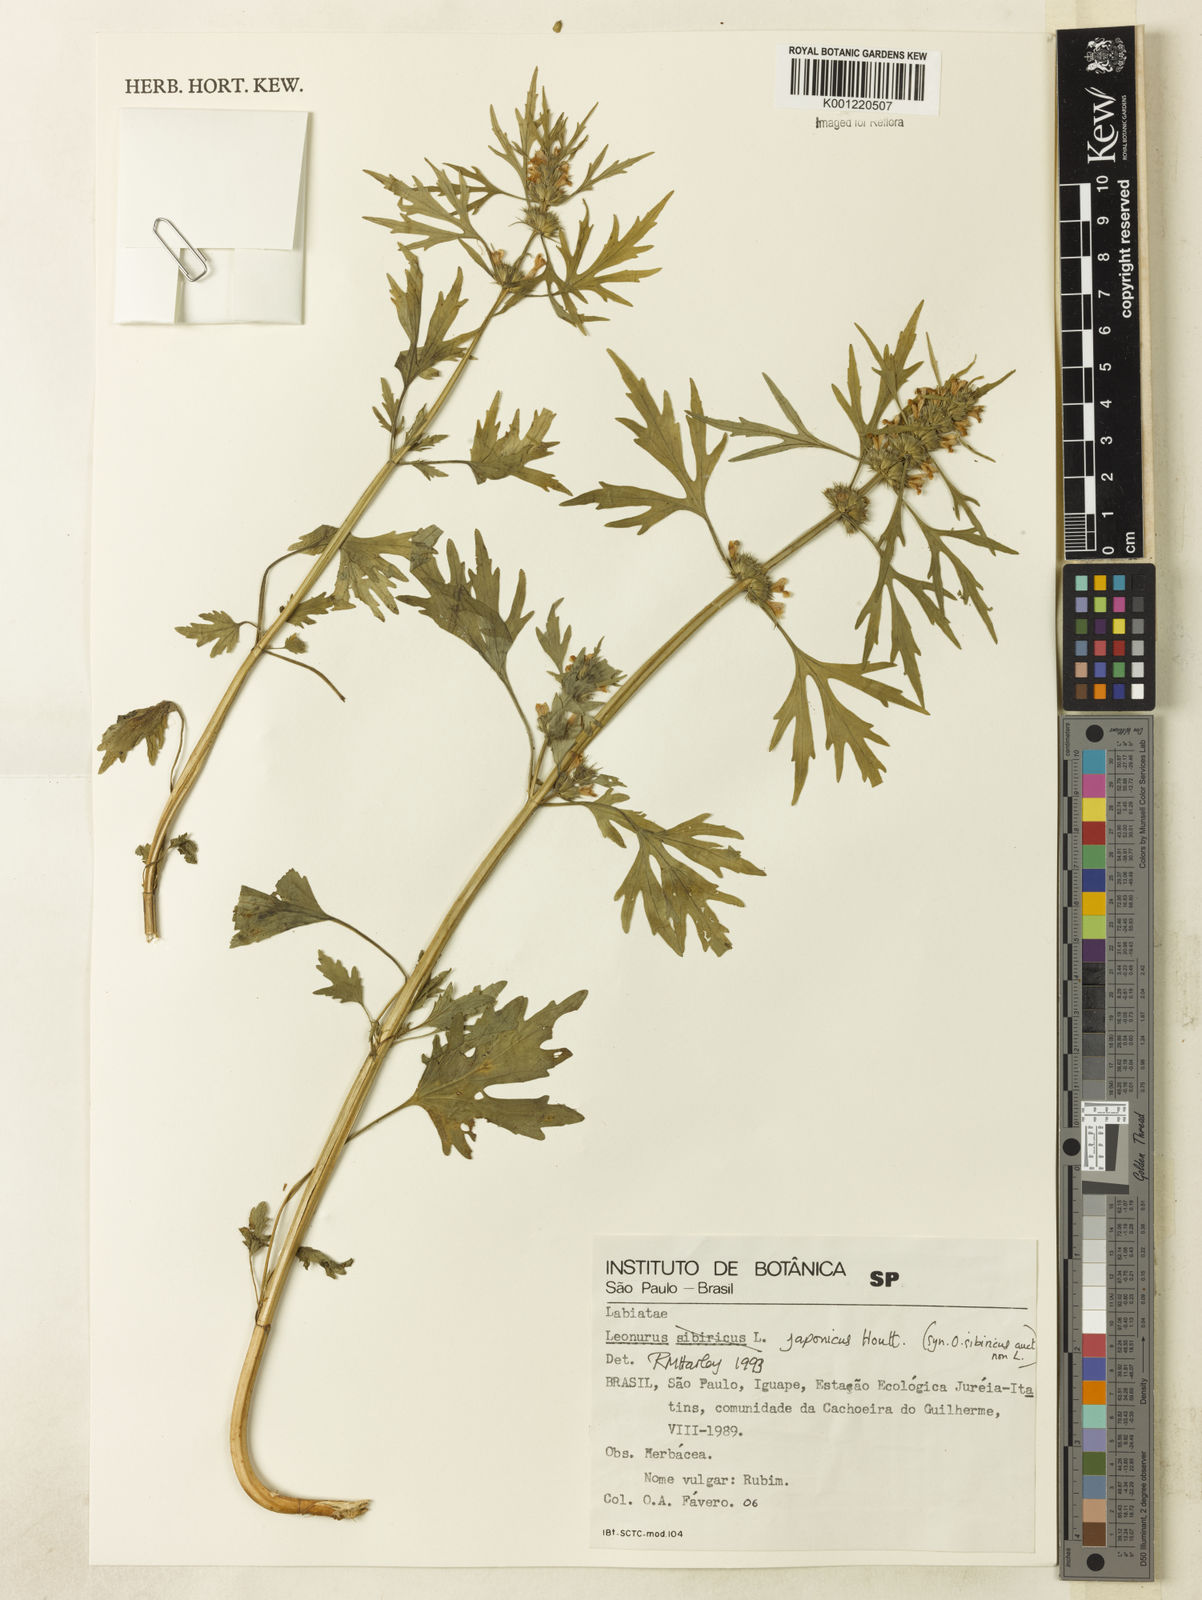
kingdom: Plantae
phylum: Tracheophyta
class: Magnoliopsida
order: Lamiales
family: Lamiaceae
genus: Leonurus
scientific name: Leonurus japonicus
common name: Honeyweed
